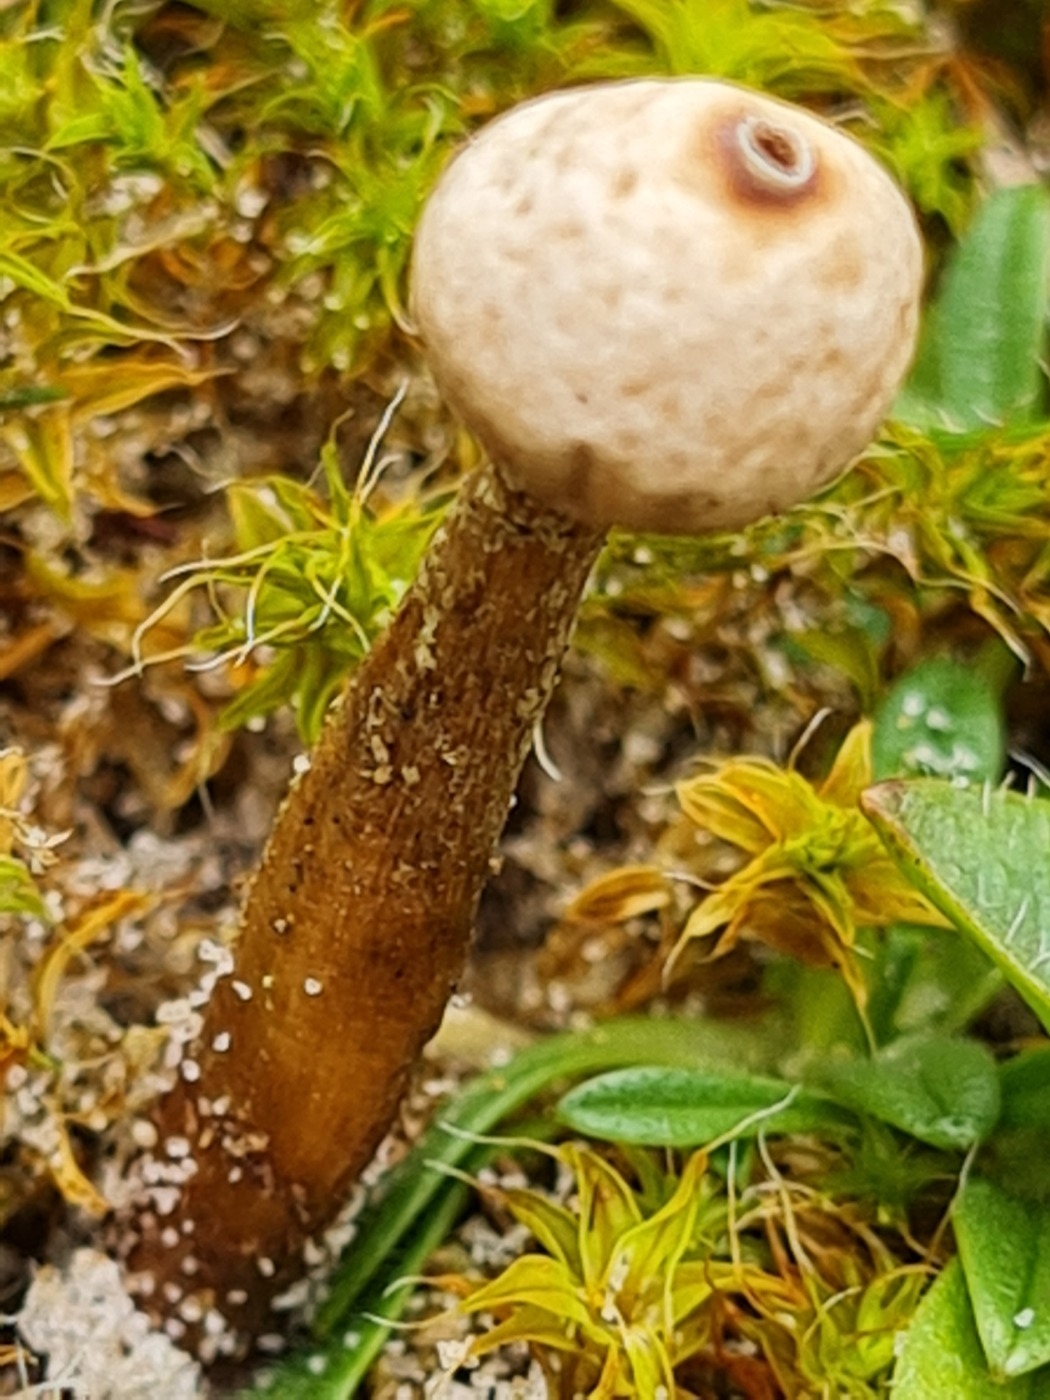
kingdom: Fungi
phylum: Basidiomycota
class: Agaricomycetes
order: Agaricales
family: Agaricaceae
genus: Tulostoma
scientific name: Tulostoma brumale
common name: vinter-stilkbovist
